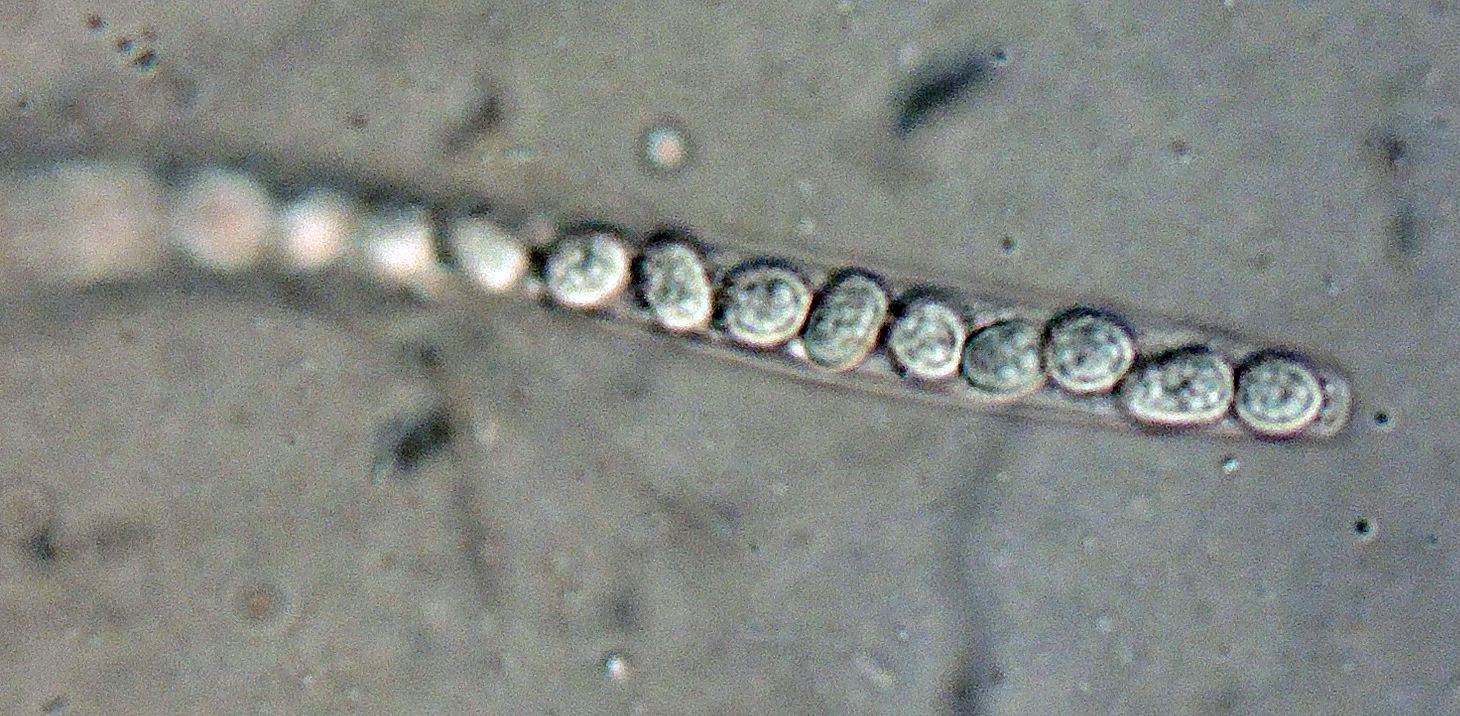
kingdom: Fungi
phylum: Ascomycota
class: Sordariomycetes
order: Hypocreales
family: Hypocreaceae
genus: Hypocrea
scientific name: Hypocrea splendens
